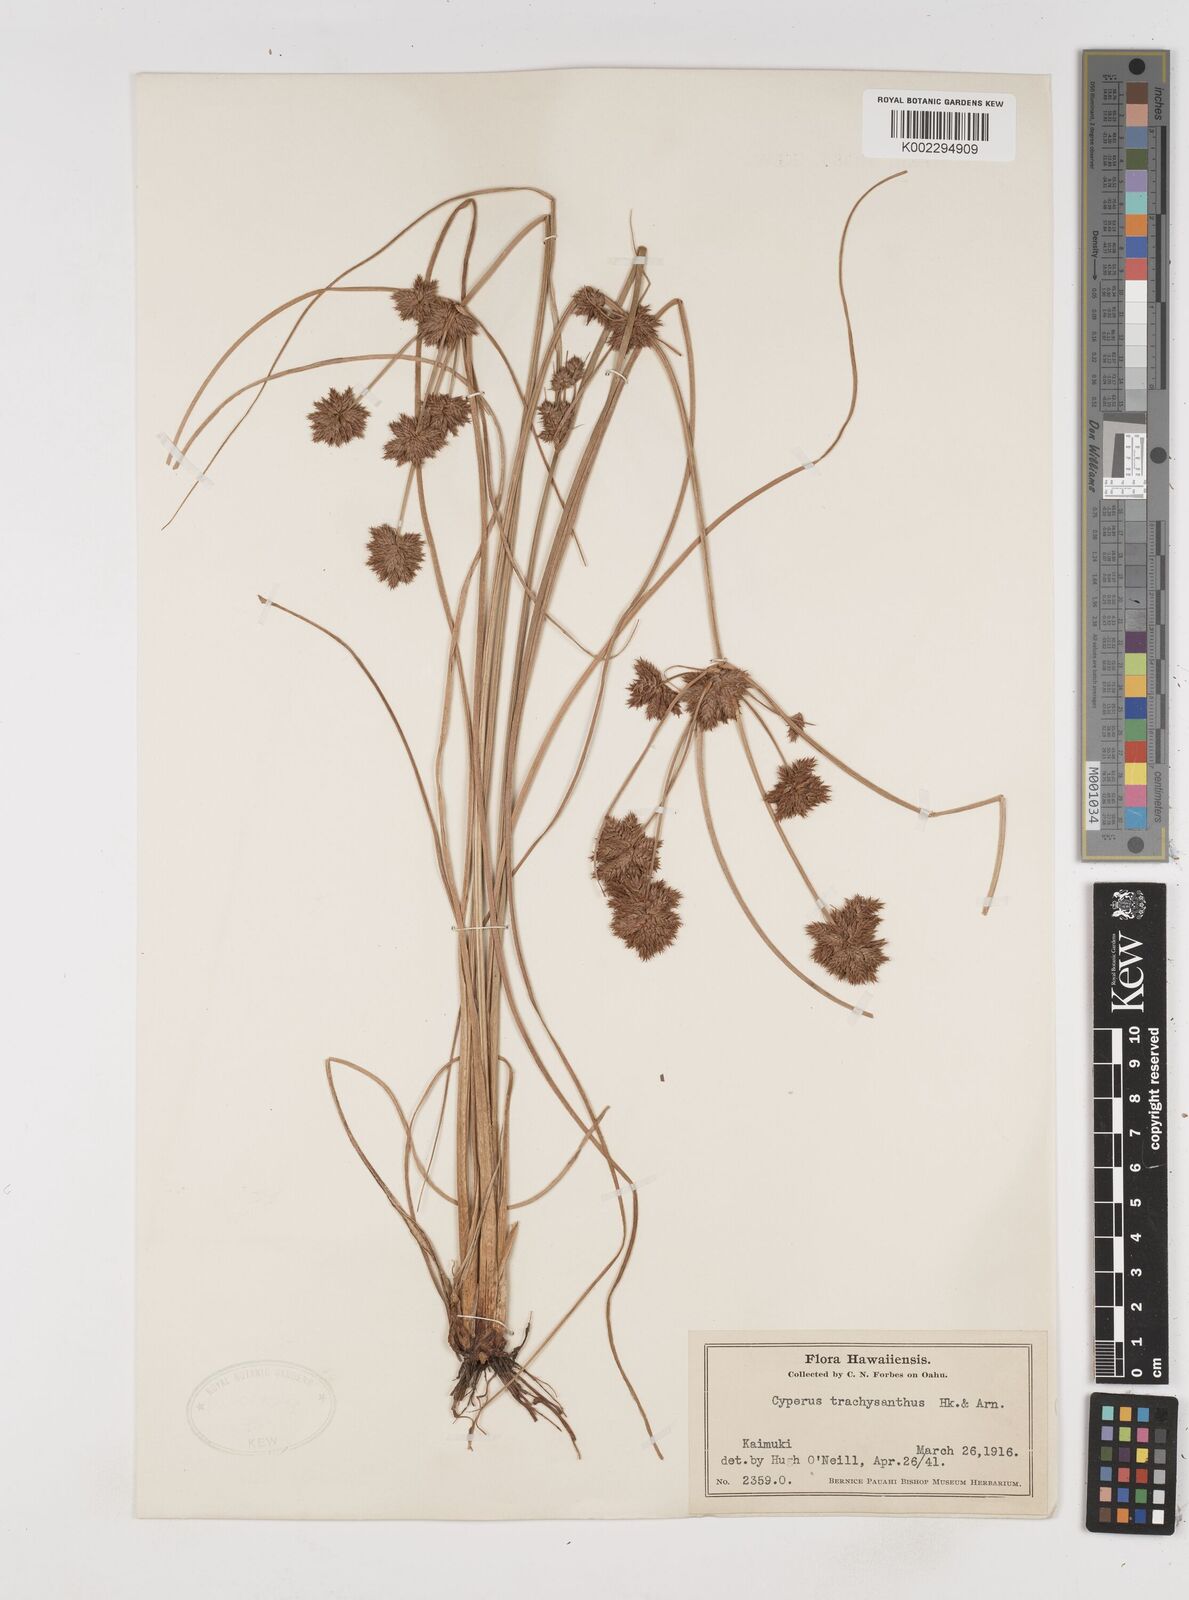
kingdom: Plantae
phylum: Tracheophyta
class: Liliopsida
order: Poales
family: Cyperaceae
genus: Cyperus
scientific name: Cyperus trachysanthos
